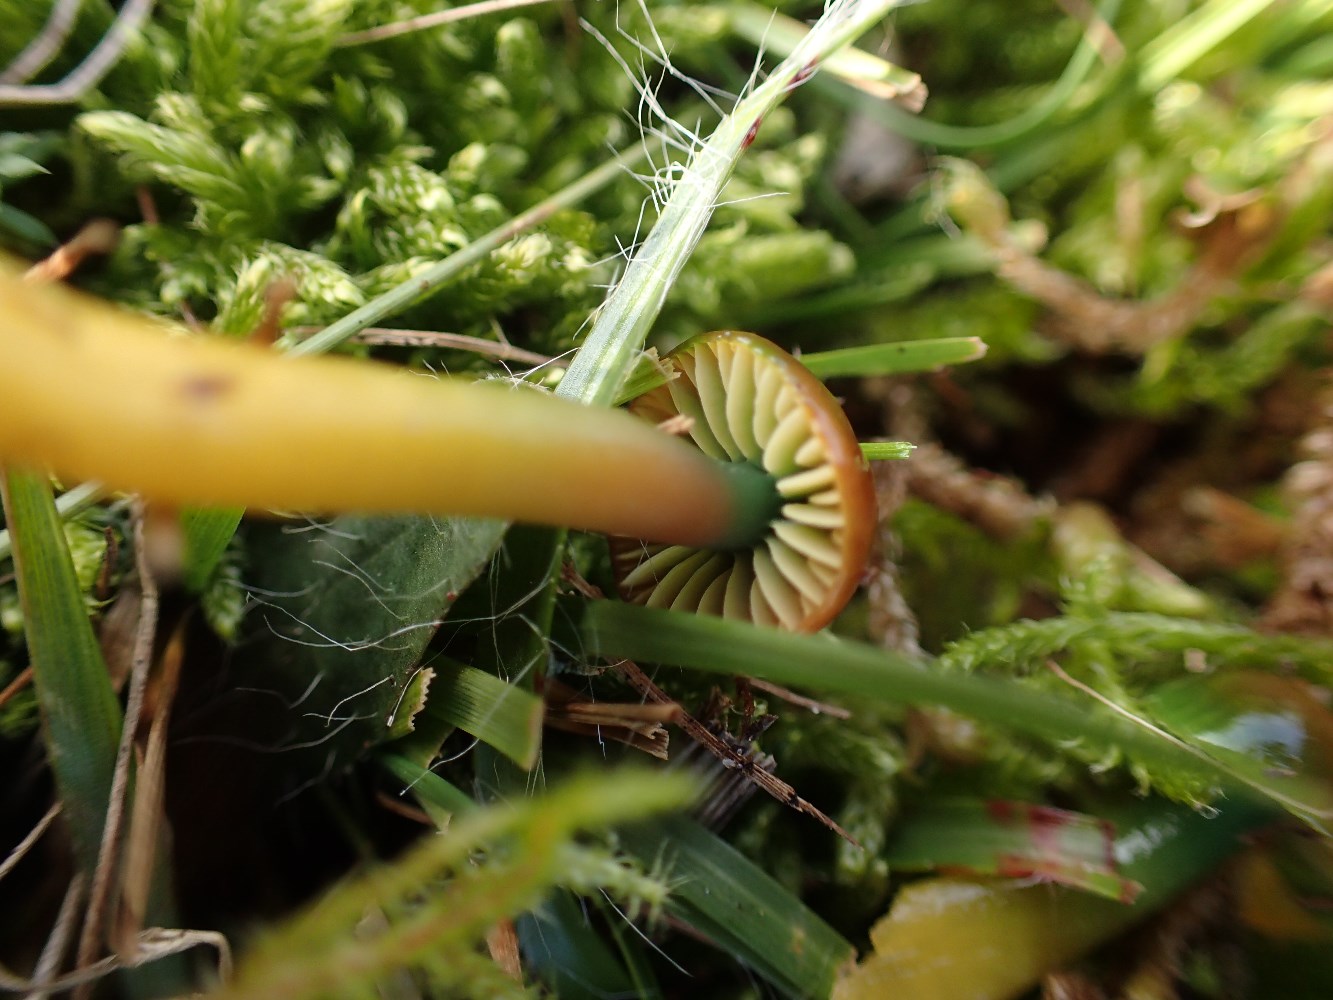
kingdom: Fungi
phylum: Basidiomycota
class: Agaricomycetes
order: Agaricales
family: Hygrophoraceae
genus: Gliophorus
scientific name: Gliophorus psittacinus
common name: papegøje-vokshat
